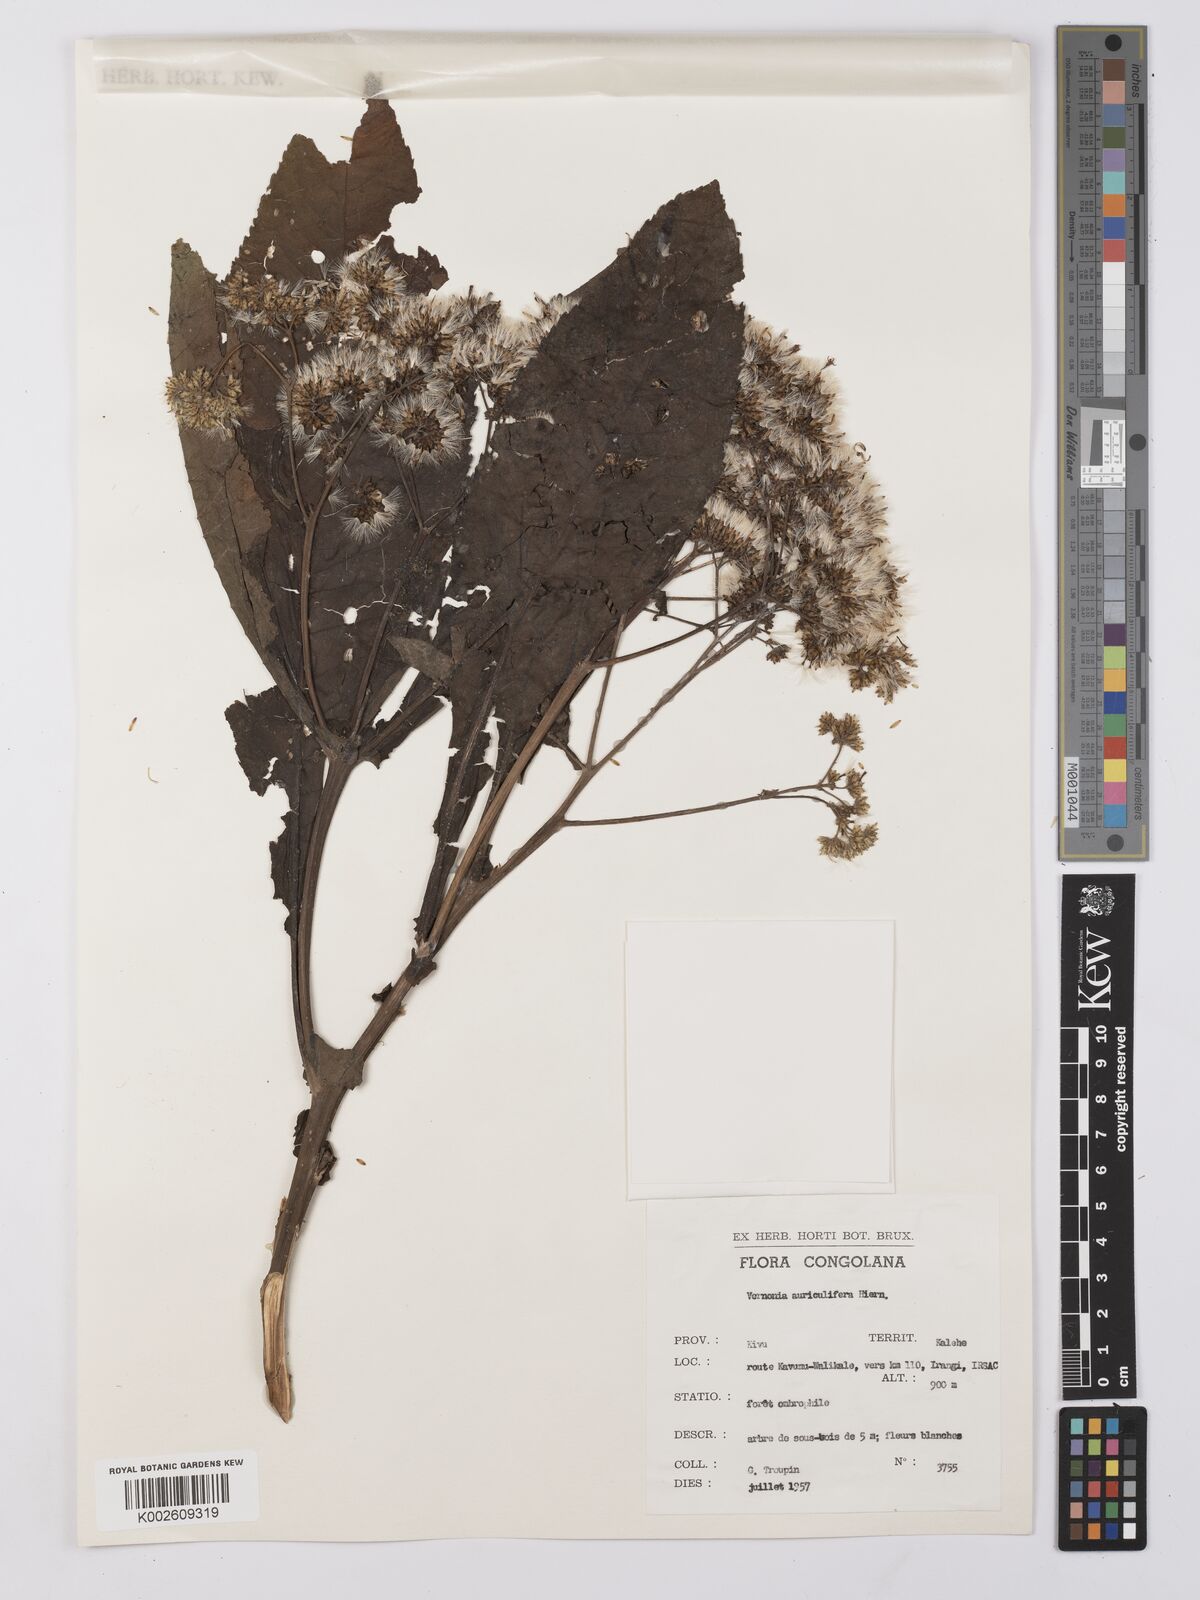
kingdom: Plantae
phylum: Tracheophyta
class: Magnoliopsida
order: Asterales
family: Asteraceae
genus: Gymnanthemum
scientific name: Gymnanthemum auriculiferum
